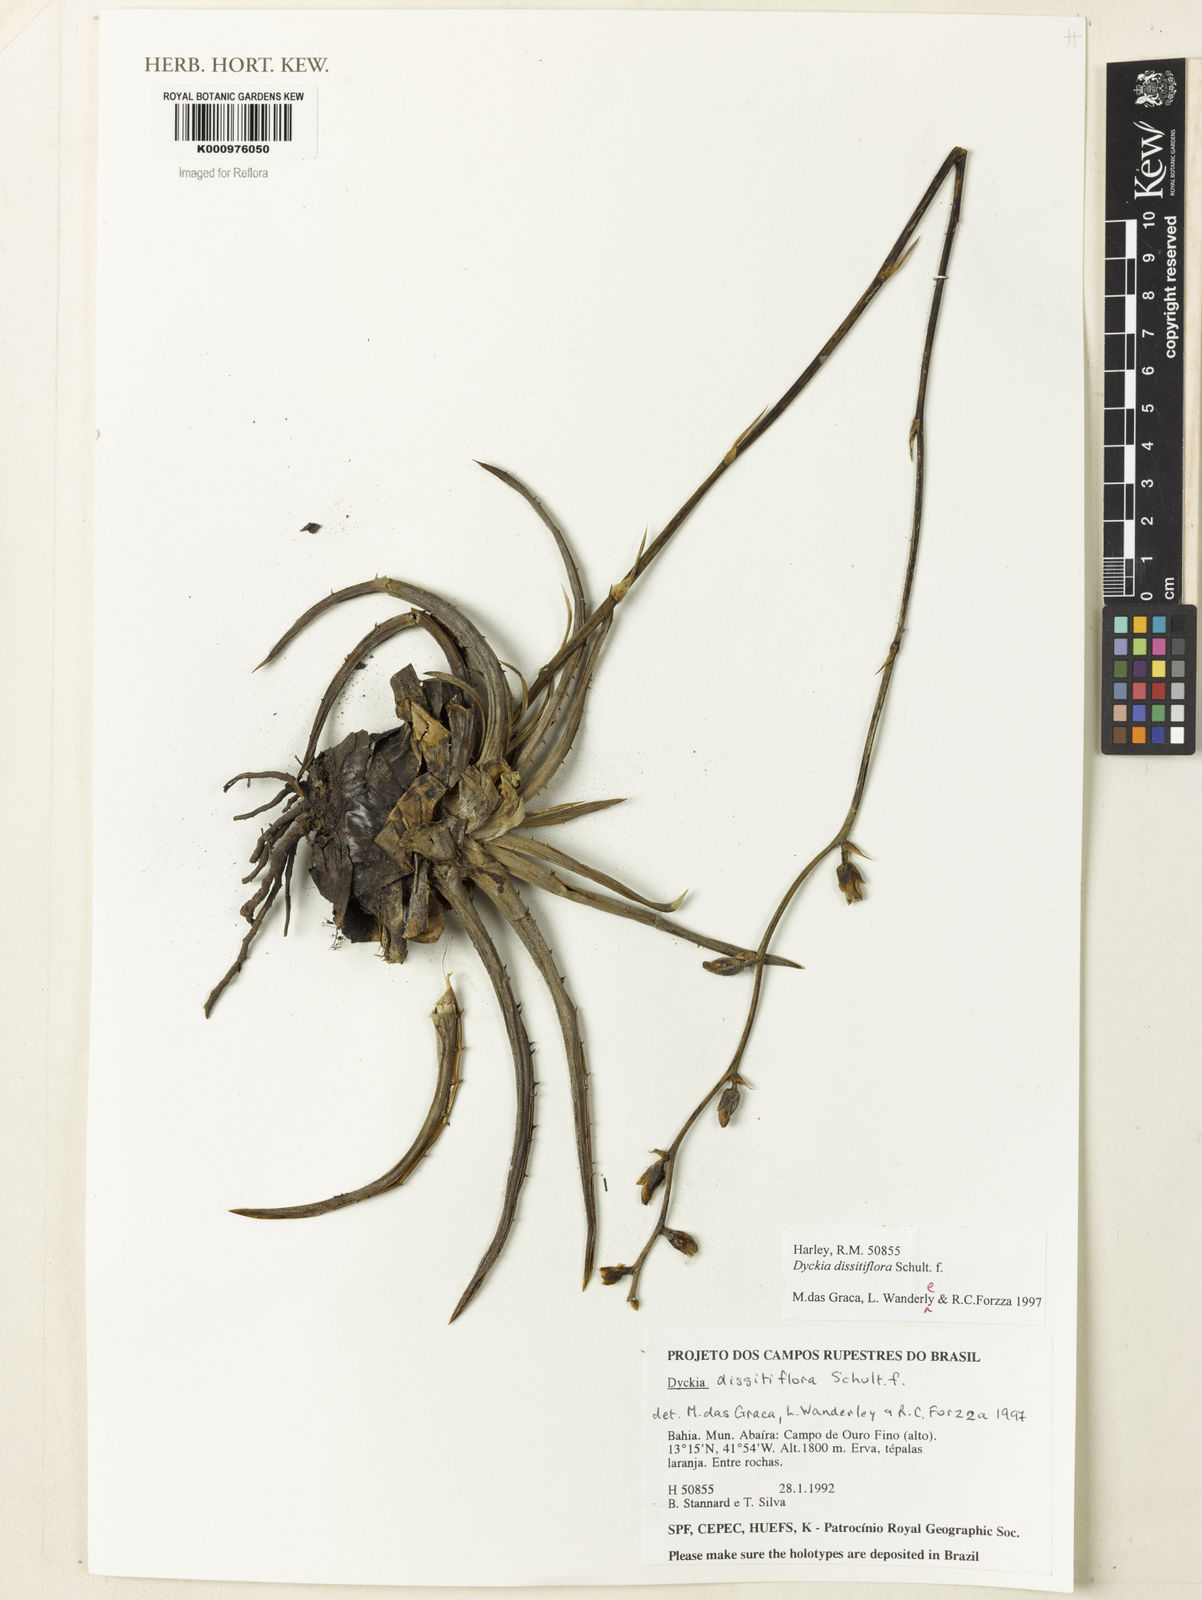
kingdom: Plantae
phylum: Tracheophyta
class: Liliopsida
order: Poales
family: Bromeliaceae
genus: Dyckia
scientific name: Dyckia dissitiflora
